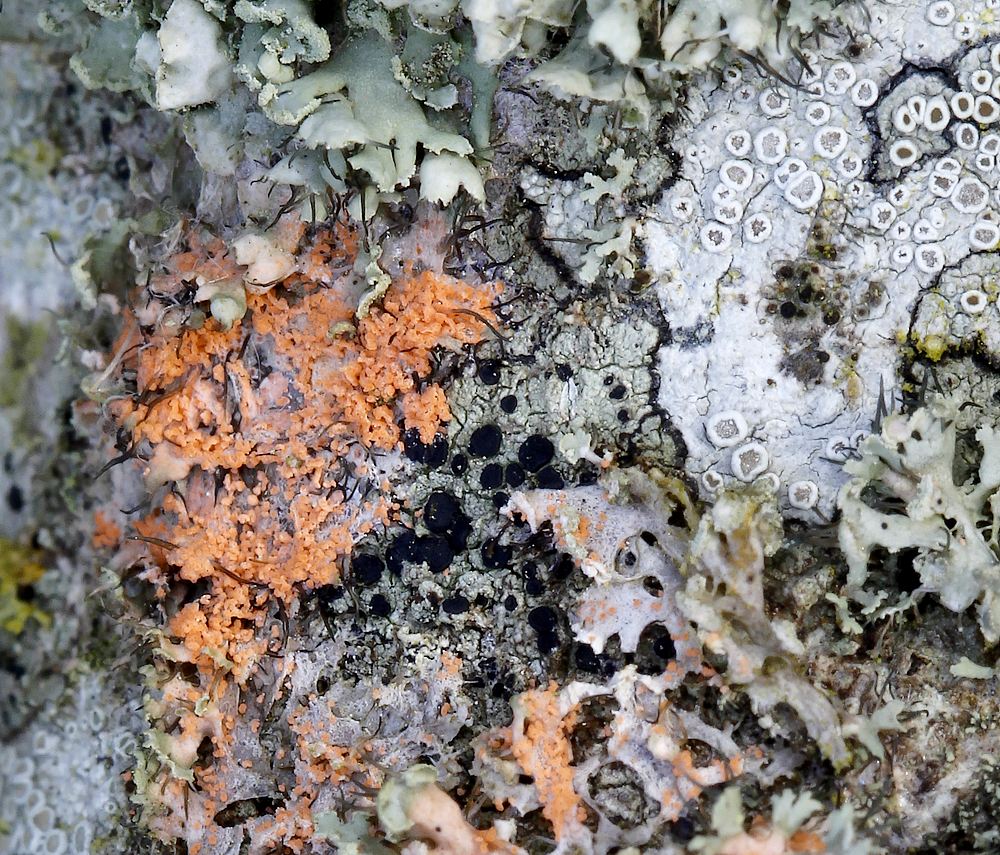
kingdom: Fungi
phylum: Basidiomycota
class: Agaricomycetes
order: Corticiales
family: Corticiaceae
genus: Erythricium
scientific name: Erythricium aurantiacum
